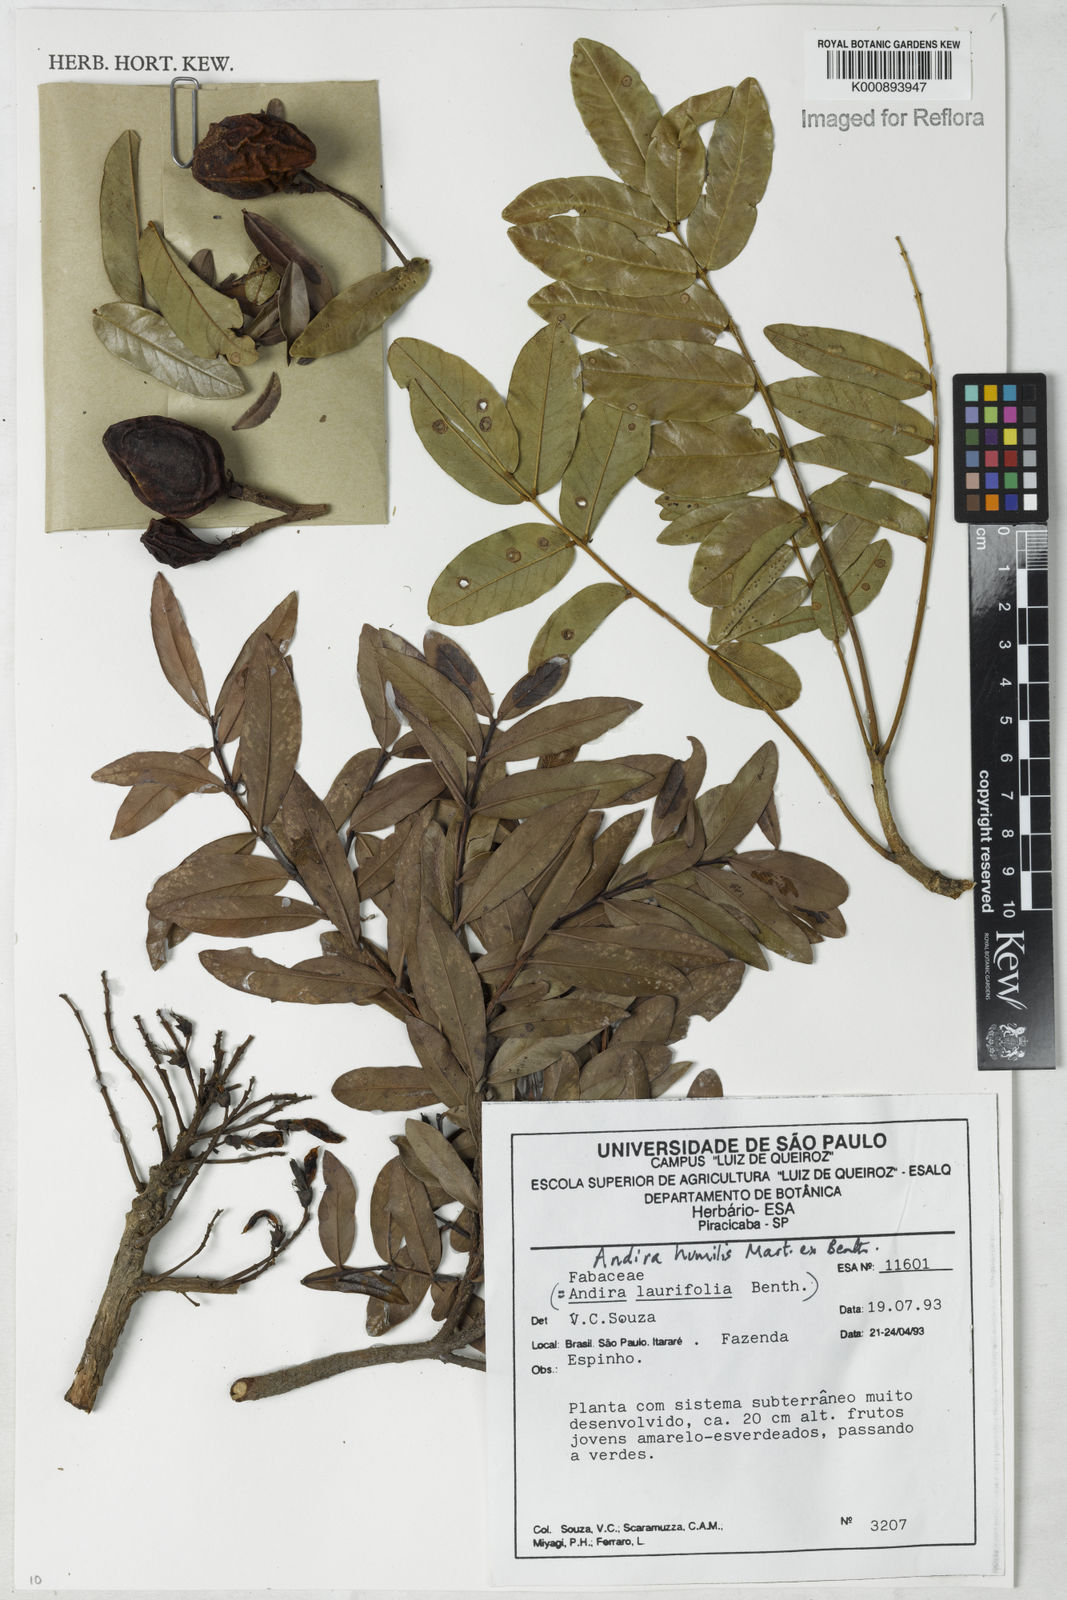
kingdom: Plantae
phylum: Tracheophyta
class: Magnoliopsida
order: Fabales
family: Fabaceae
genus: Andira
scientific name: Andira humilis
